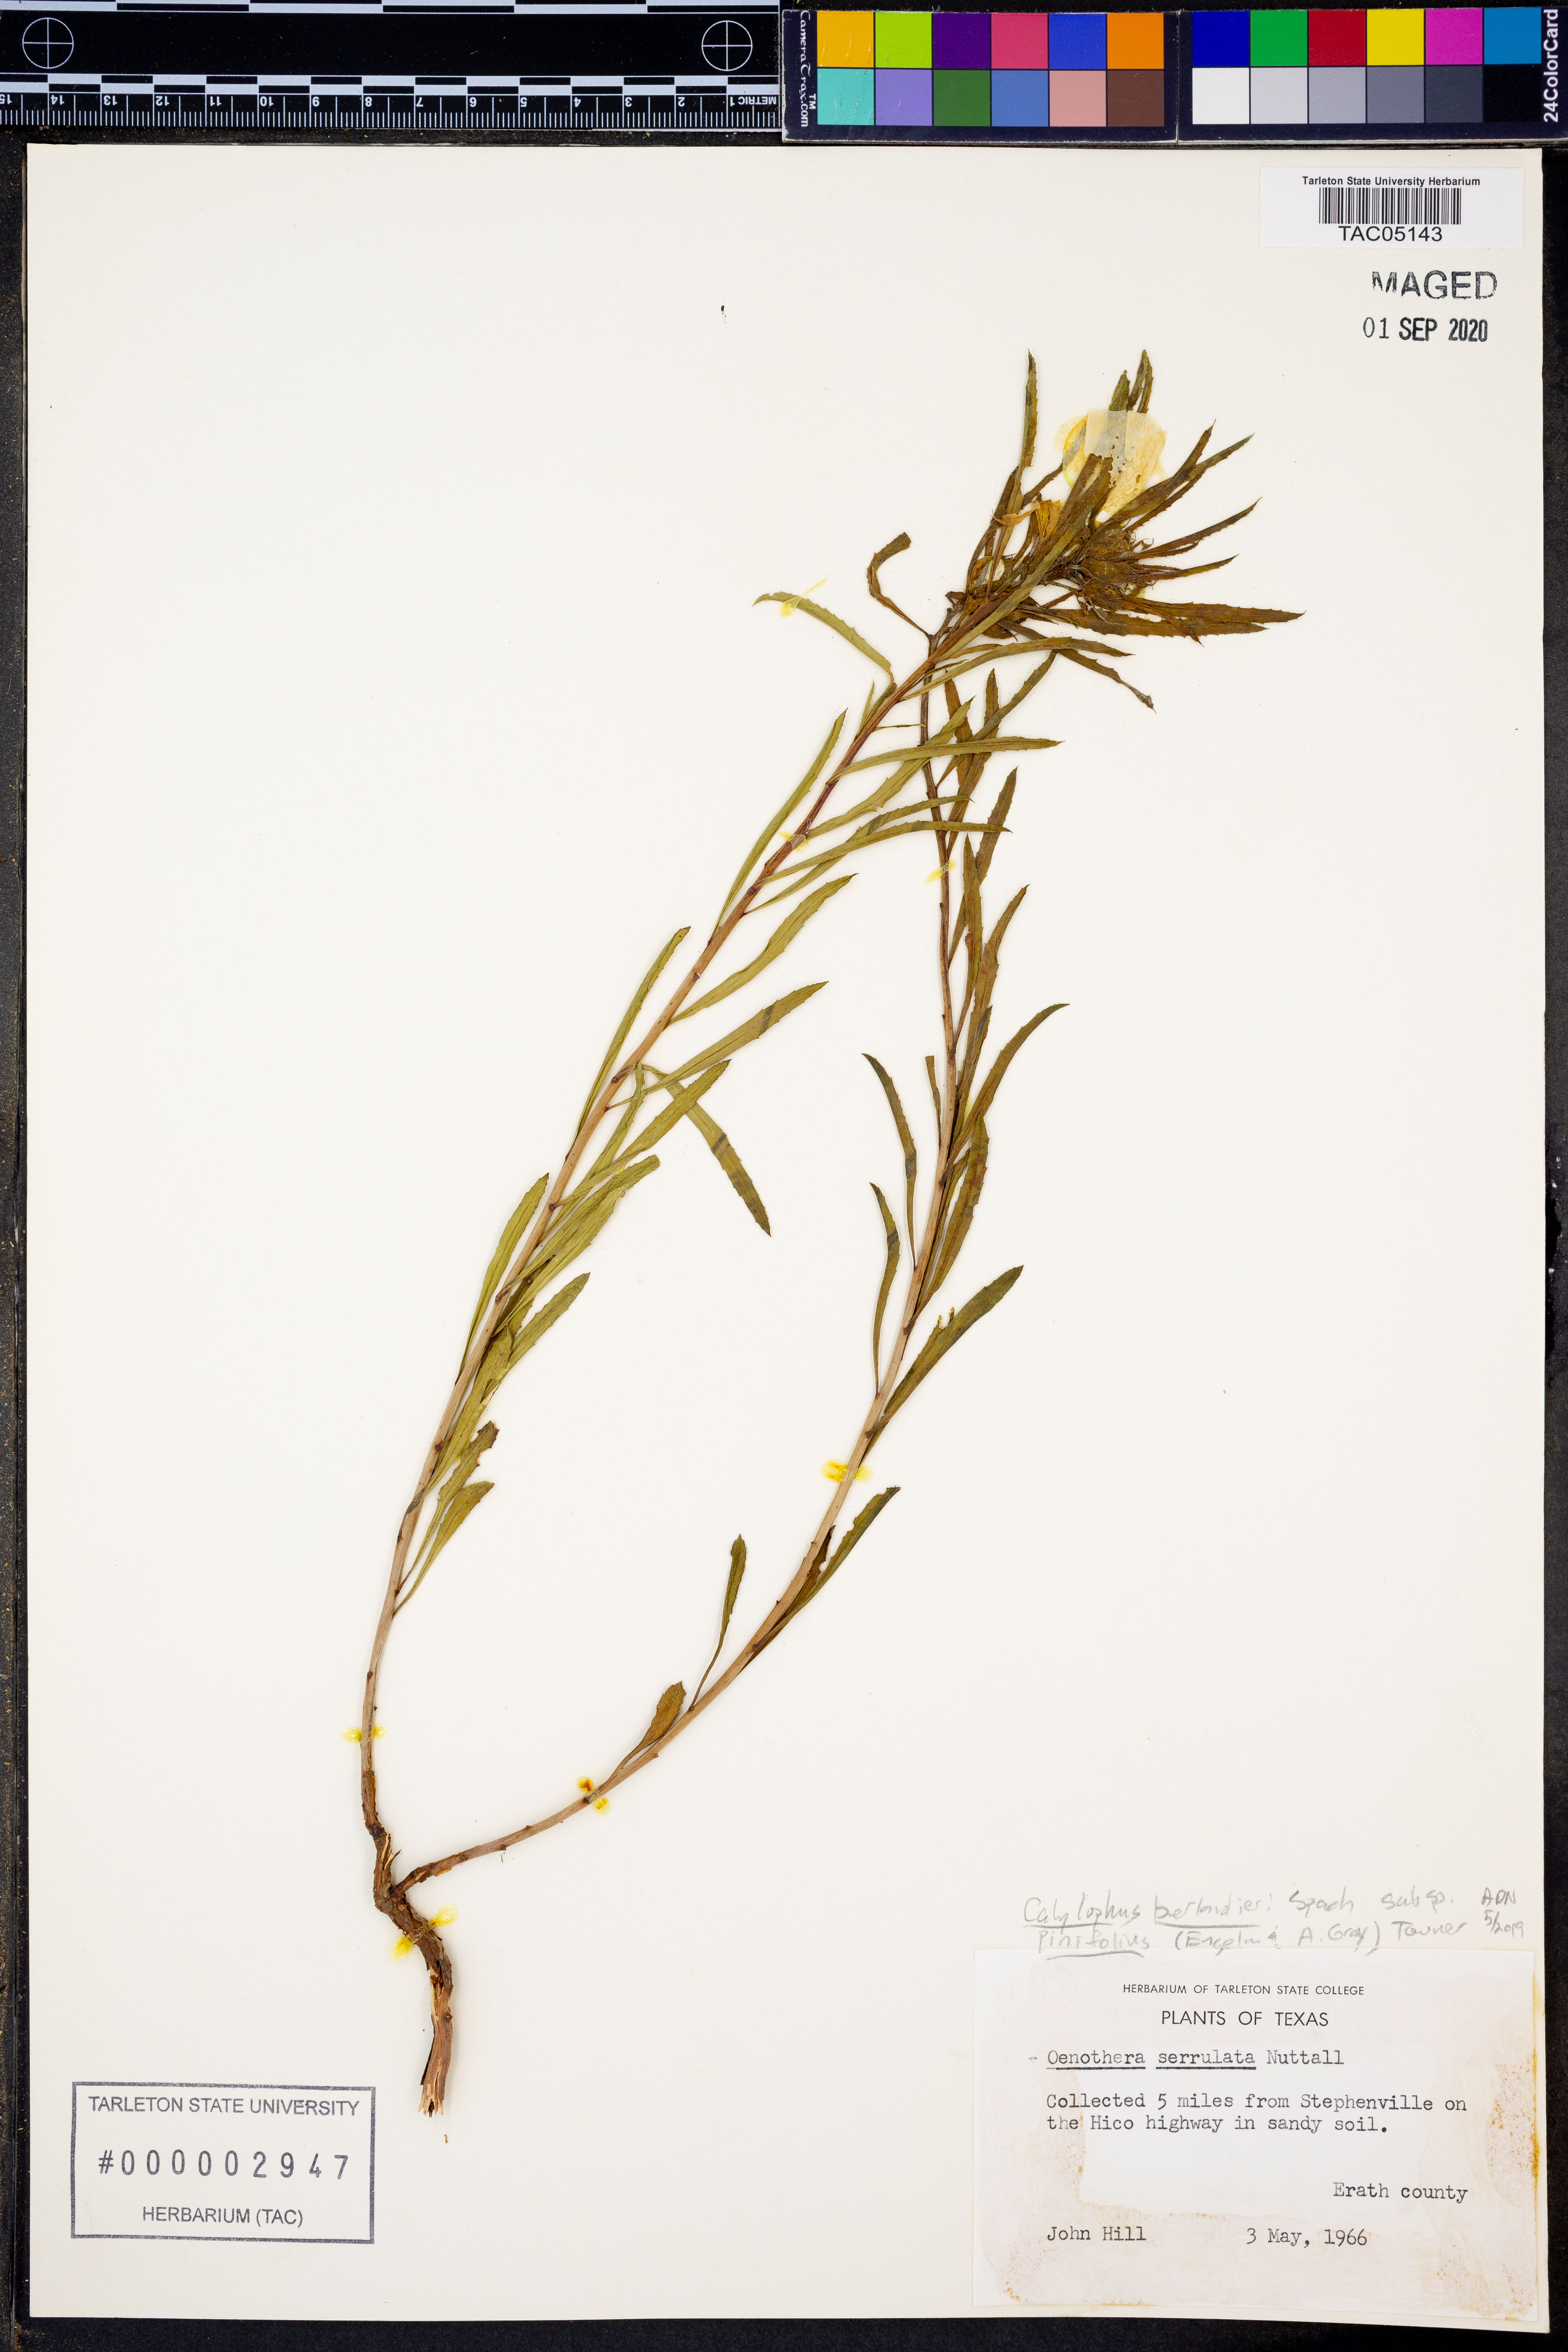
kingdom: Plantae
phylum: Tracheophyta
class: Magnoliopsida
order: Myrtales
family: Onagraceae
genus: Oenothera
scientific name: Oenothera capillifolia
